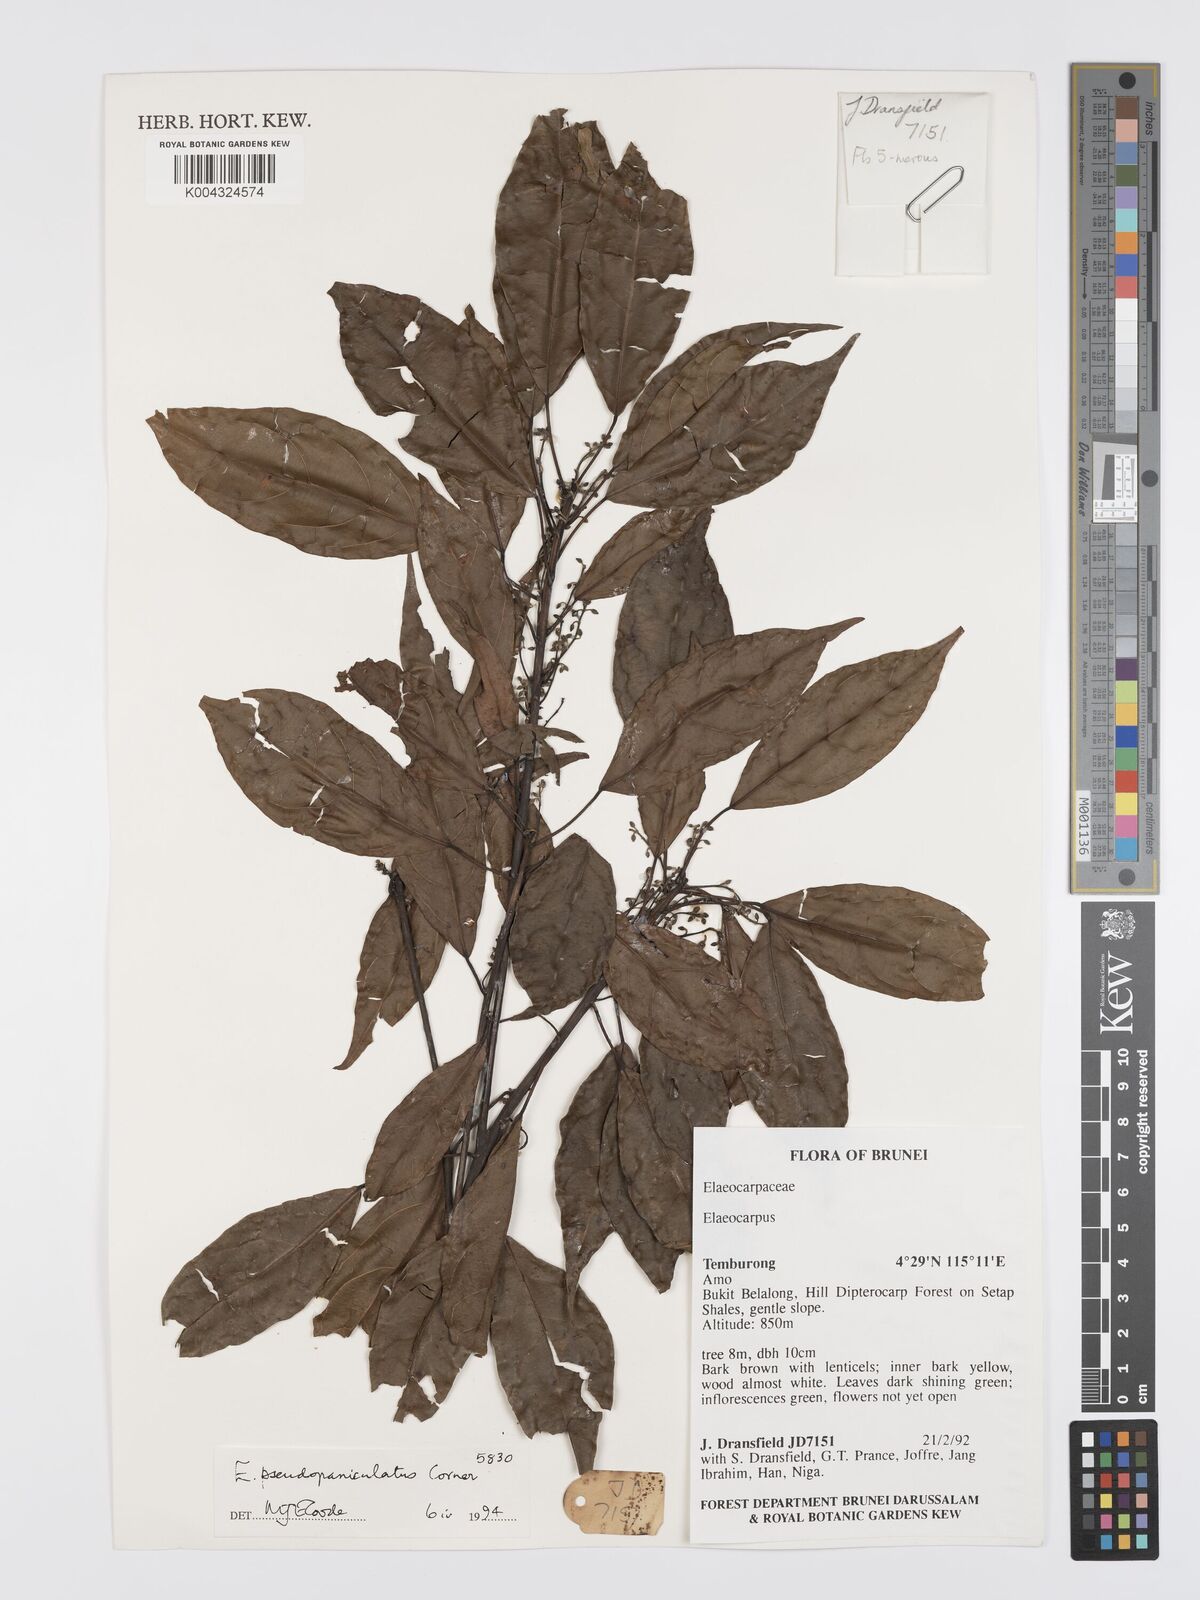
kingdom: Plantae
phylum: Tracheophyta
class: Magnoliopsida
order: Oxalidales
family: Elaeocarpaceae
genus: Elaeocarpus
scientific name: Elaeocarpus palembanicus
